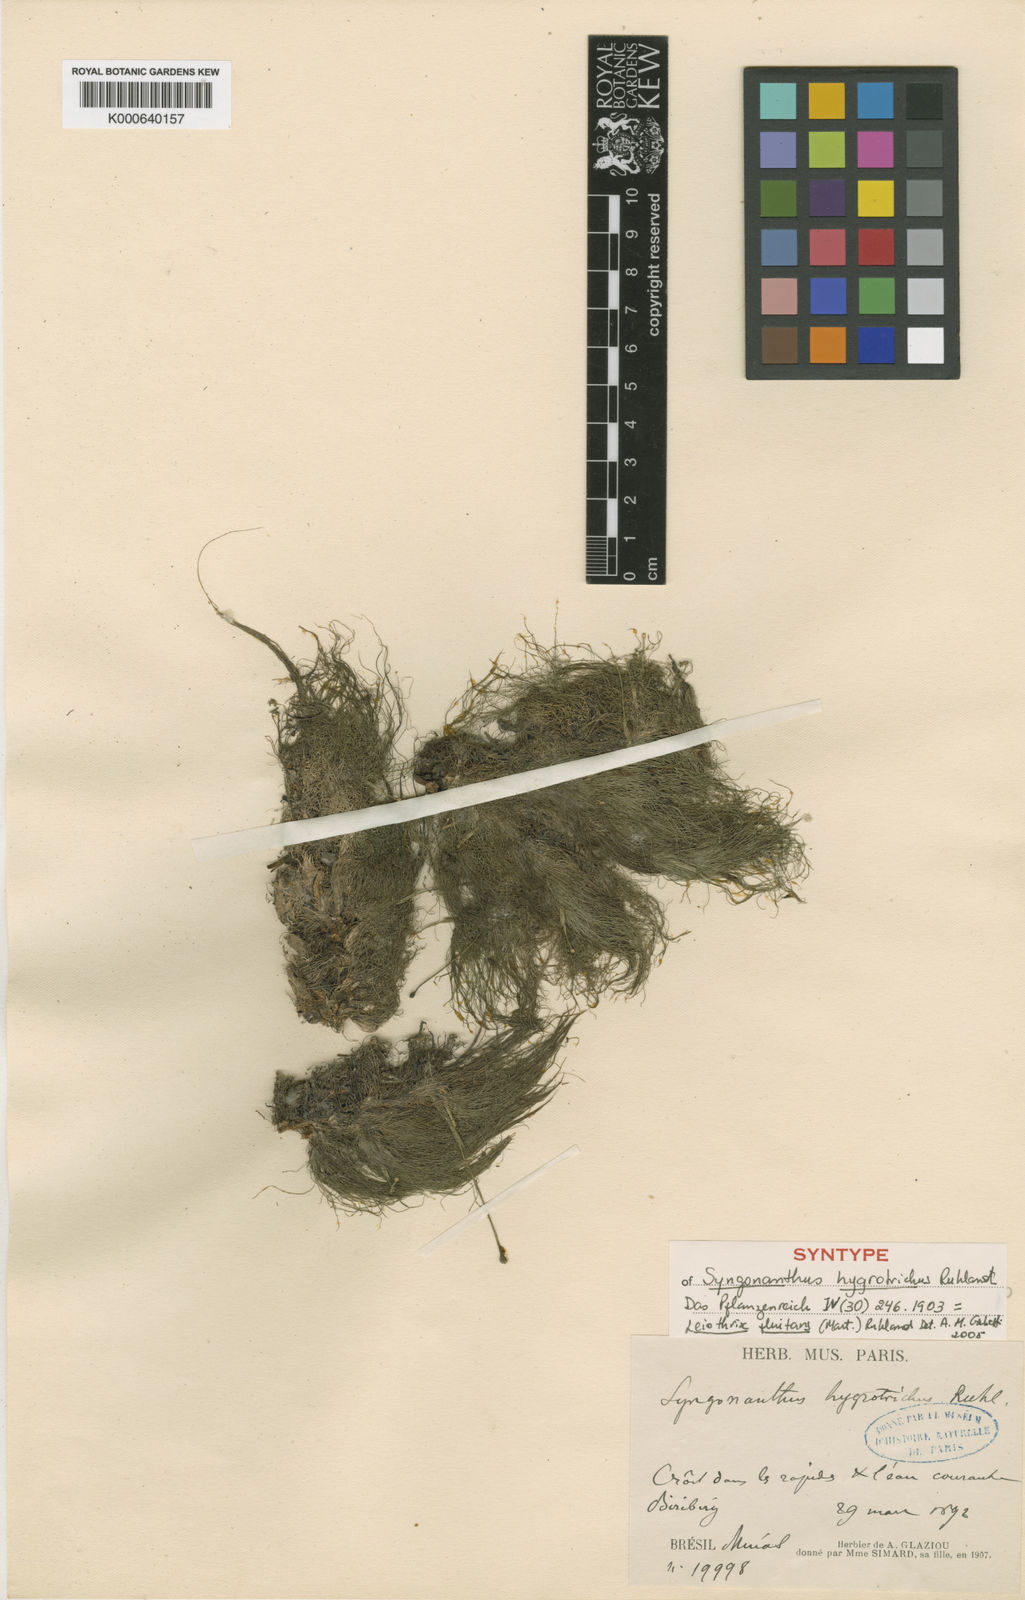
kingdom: Plantae
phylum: Tracheophyta
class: Liliopsida
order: Poales
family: Eriocaulaceae
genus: Leiothrix
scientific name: Leiothrix
